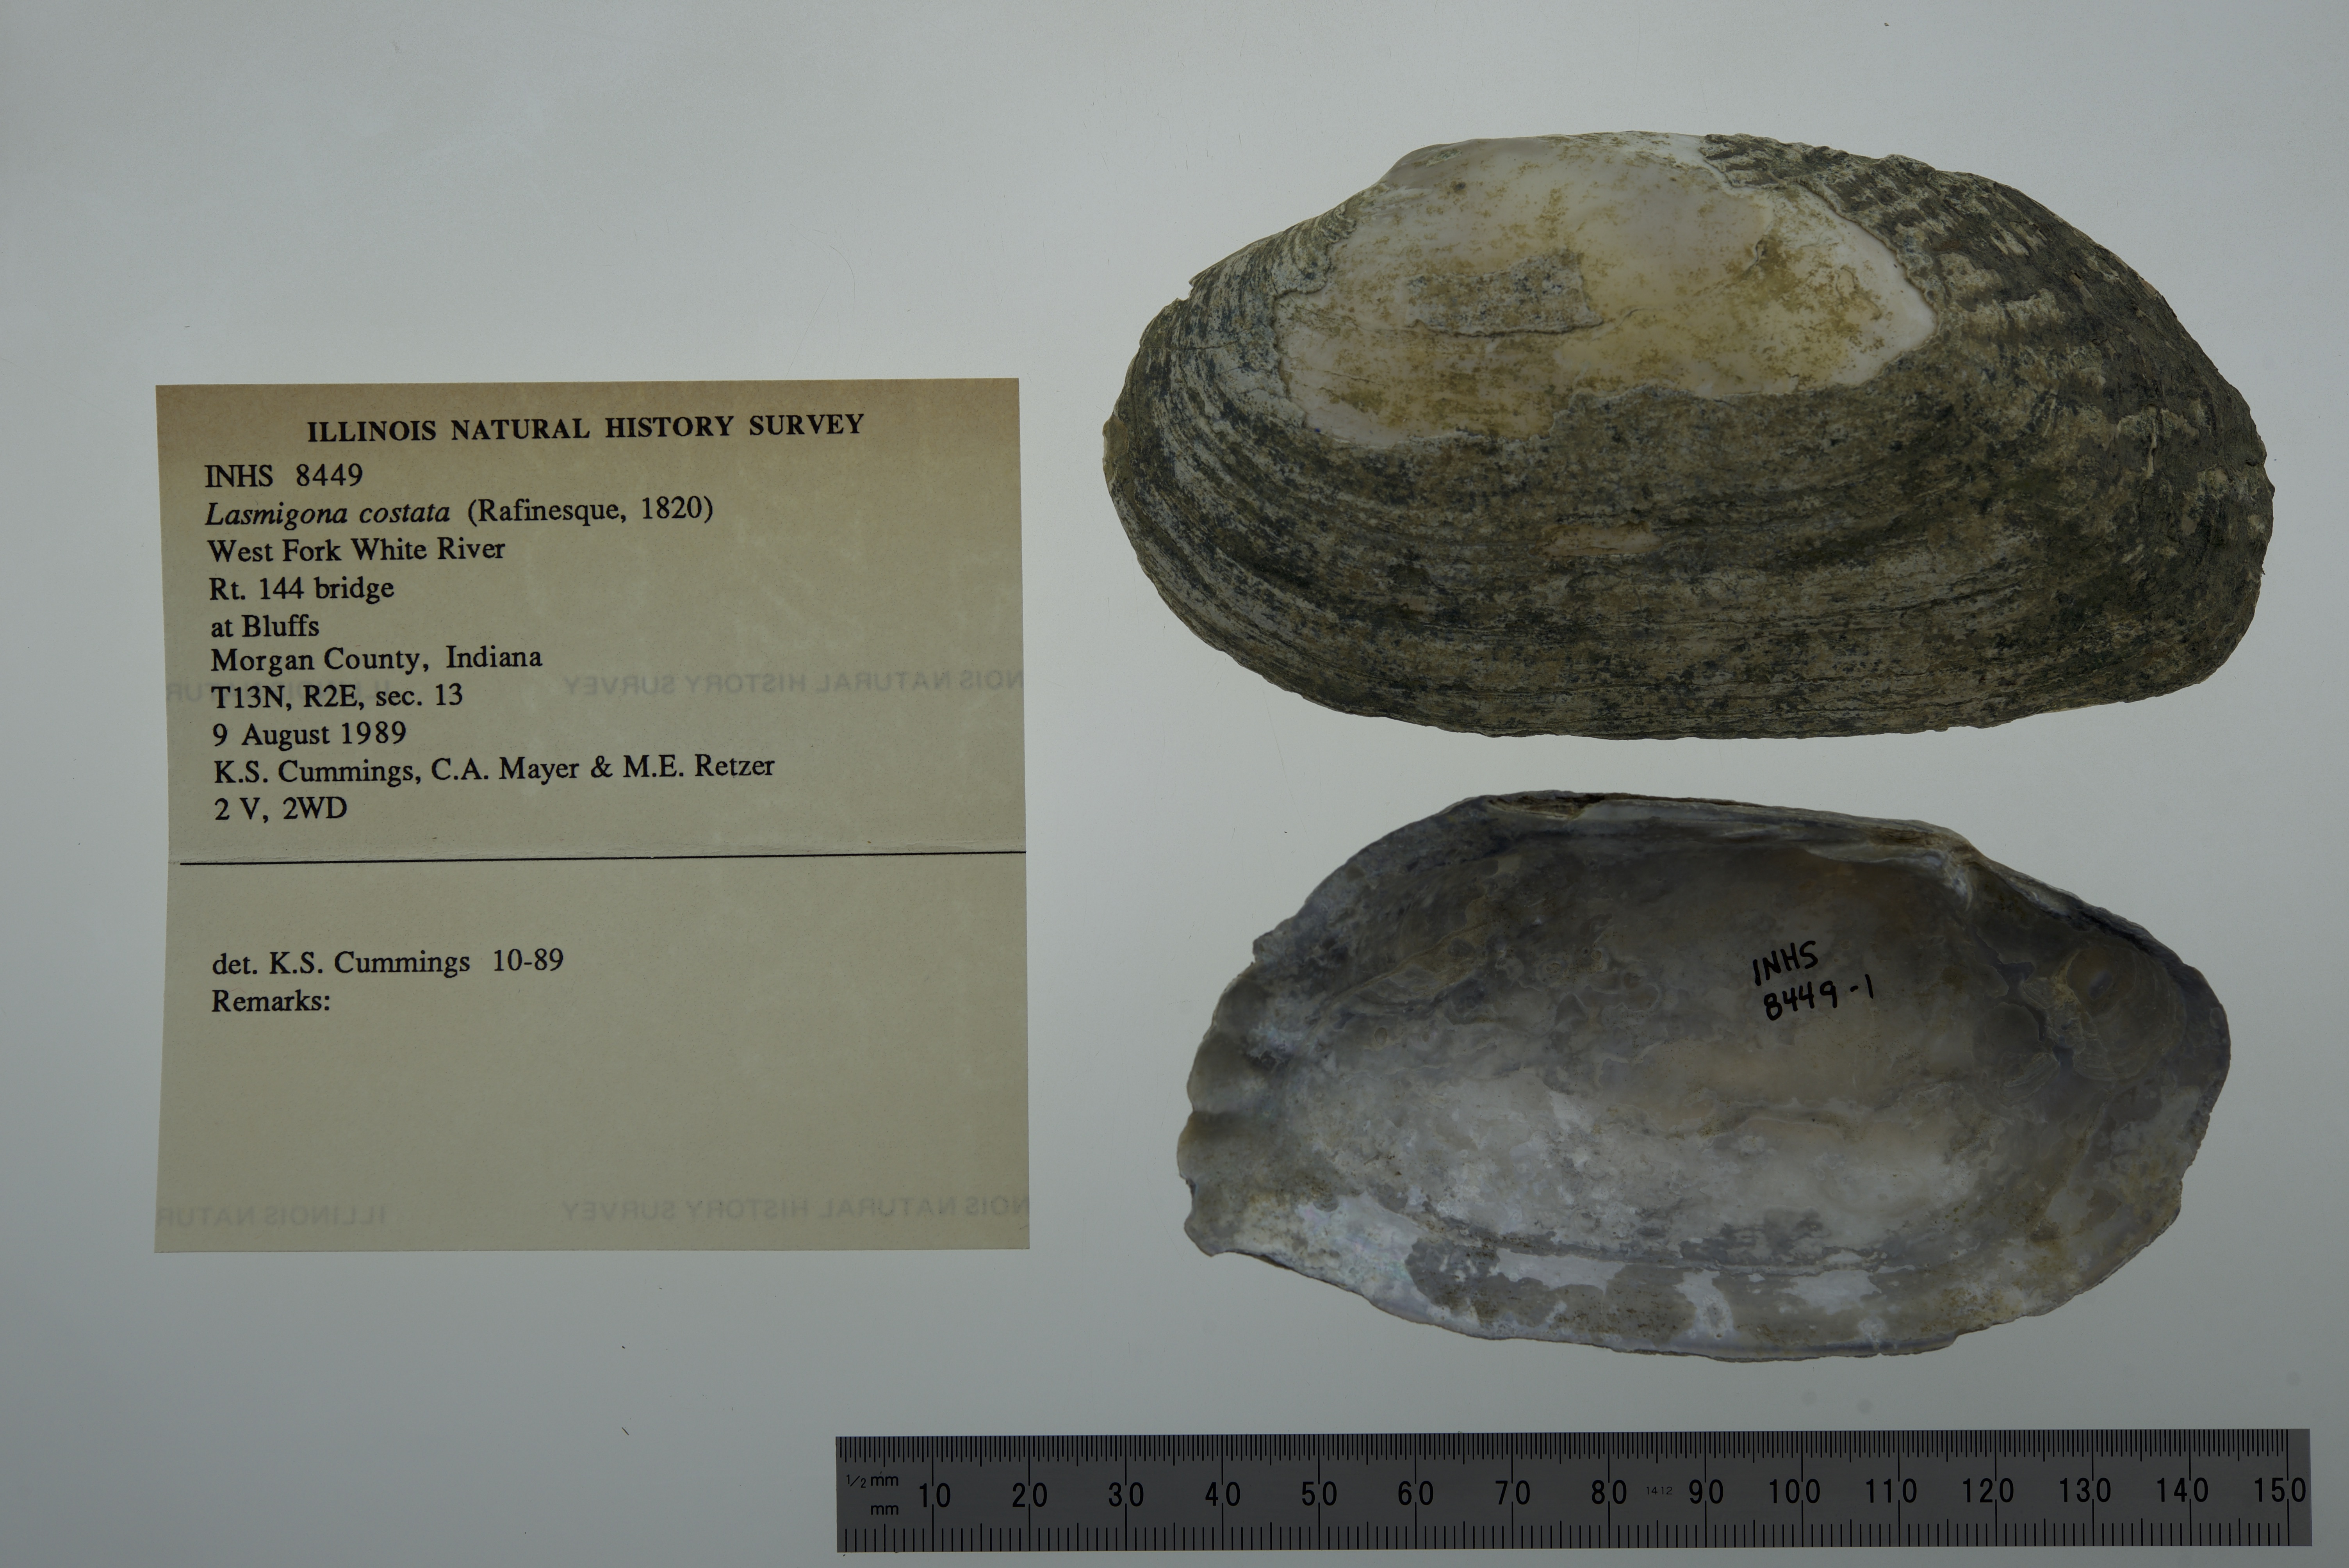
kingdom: Animalia
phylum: Mollusca
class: Bivalvia
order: Unionida
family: Unionidae
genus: Lasmigona
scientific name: Lasmigona costata
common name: Flutedshell
